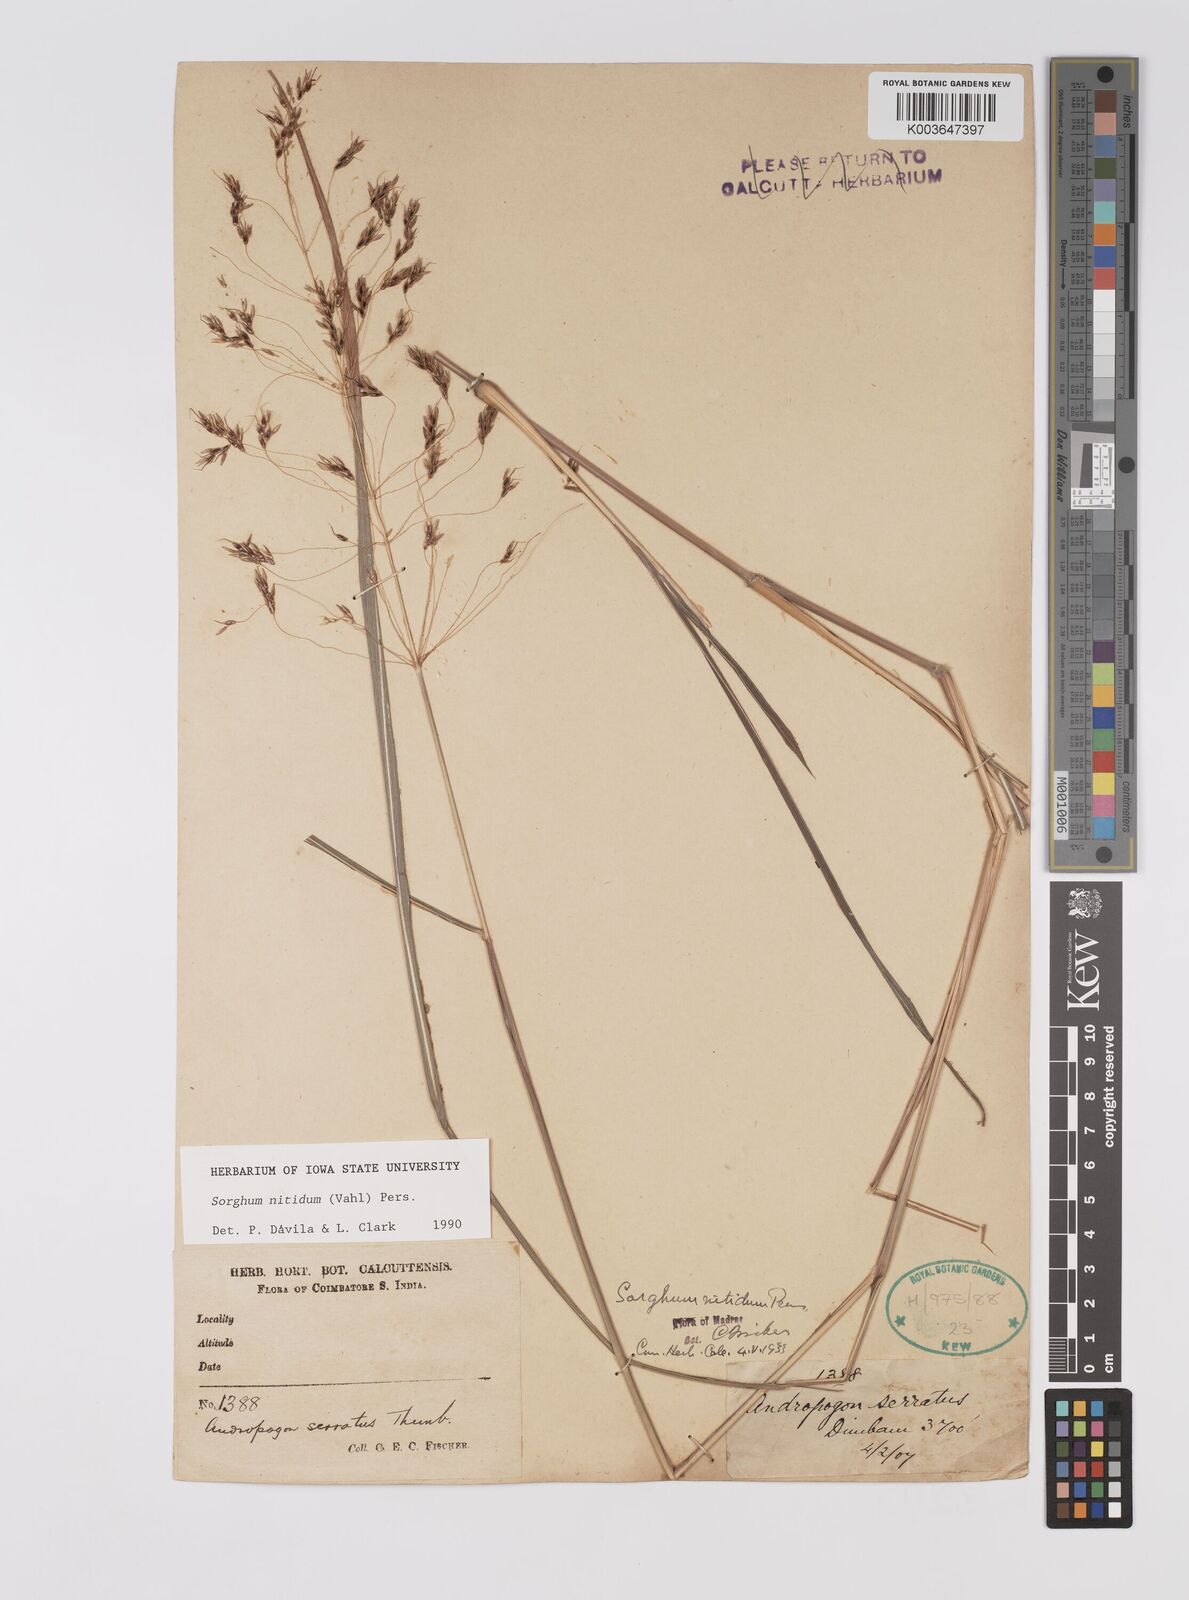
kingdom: Plantae
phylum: Tracheophyta
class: Liliopsida
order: Poales
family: Poaceae
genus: Sorghum
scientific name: Sorghum nitidum
